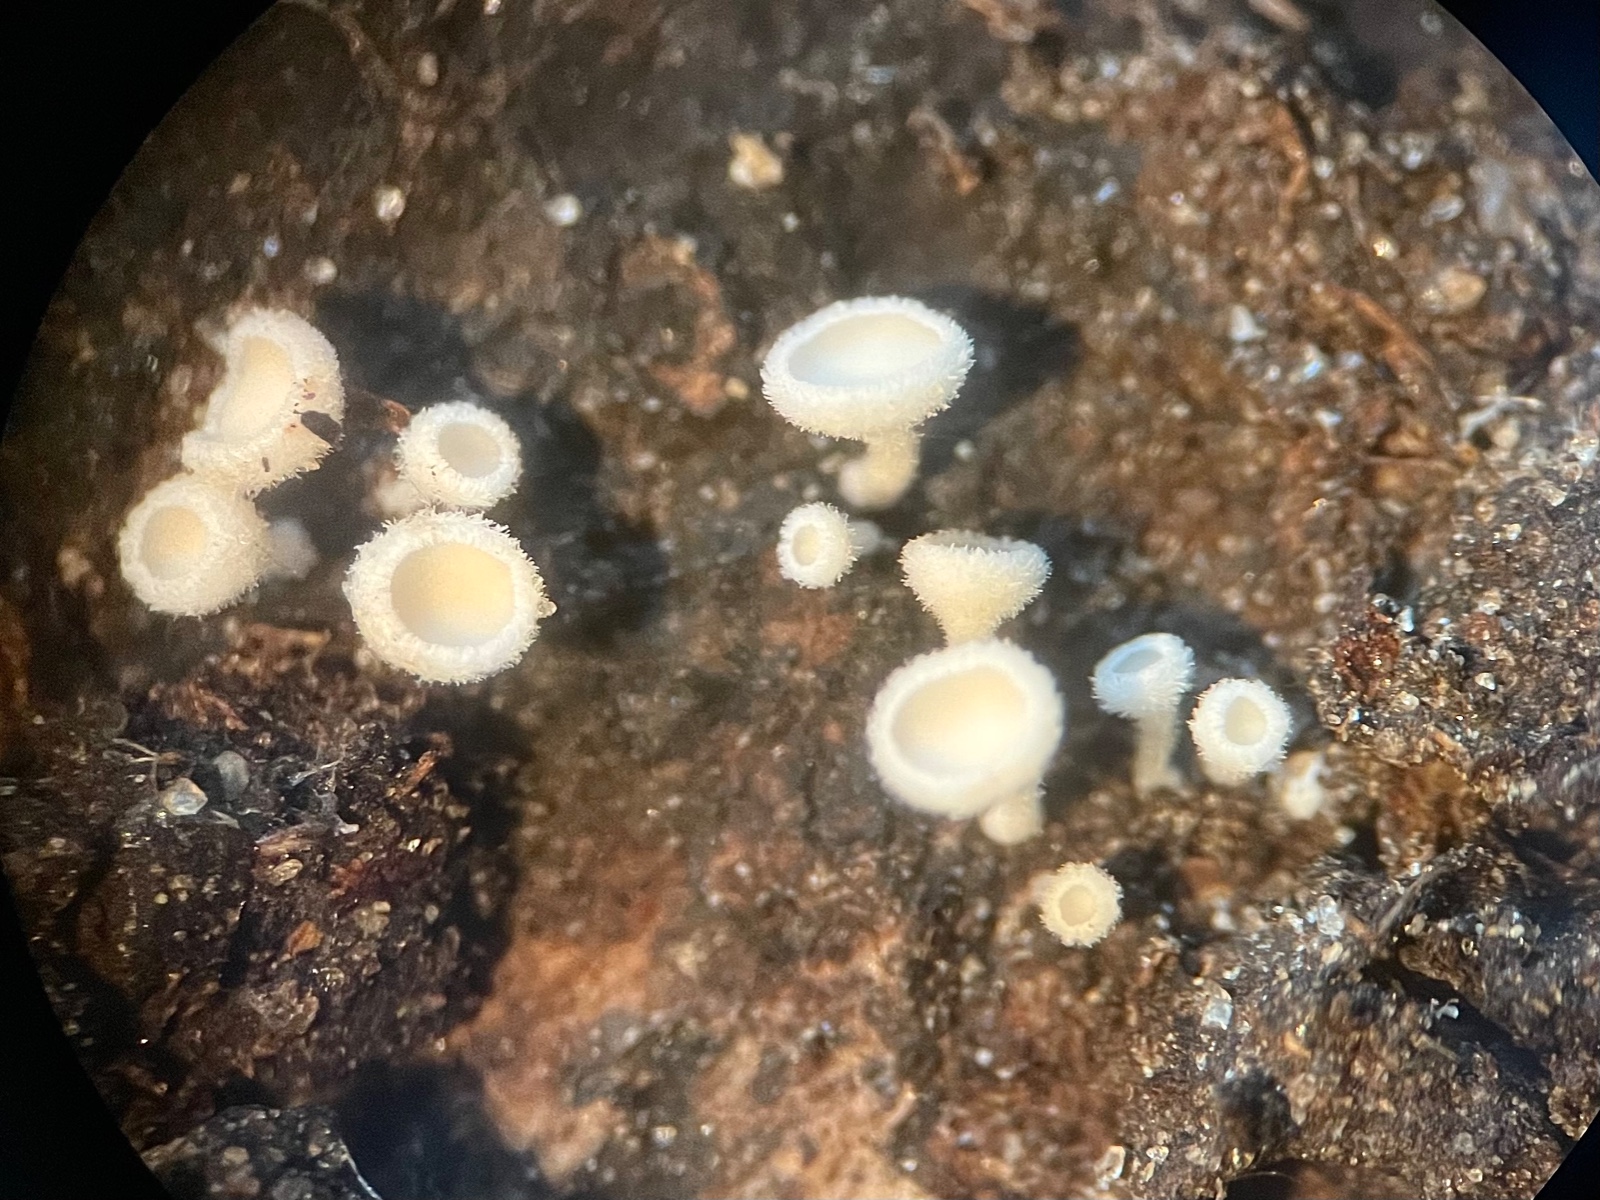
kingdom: Fungi
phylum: Ascomycota
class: Leotiomycetes
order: Helotiales
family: Hyaloscyphaceae
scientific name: Hyaloscyphaceae
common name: frynseskivefamilien
